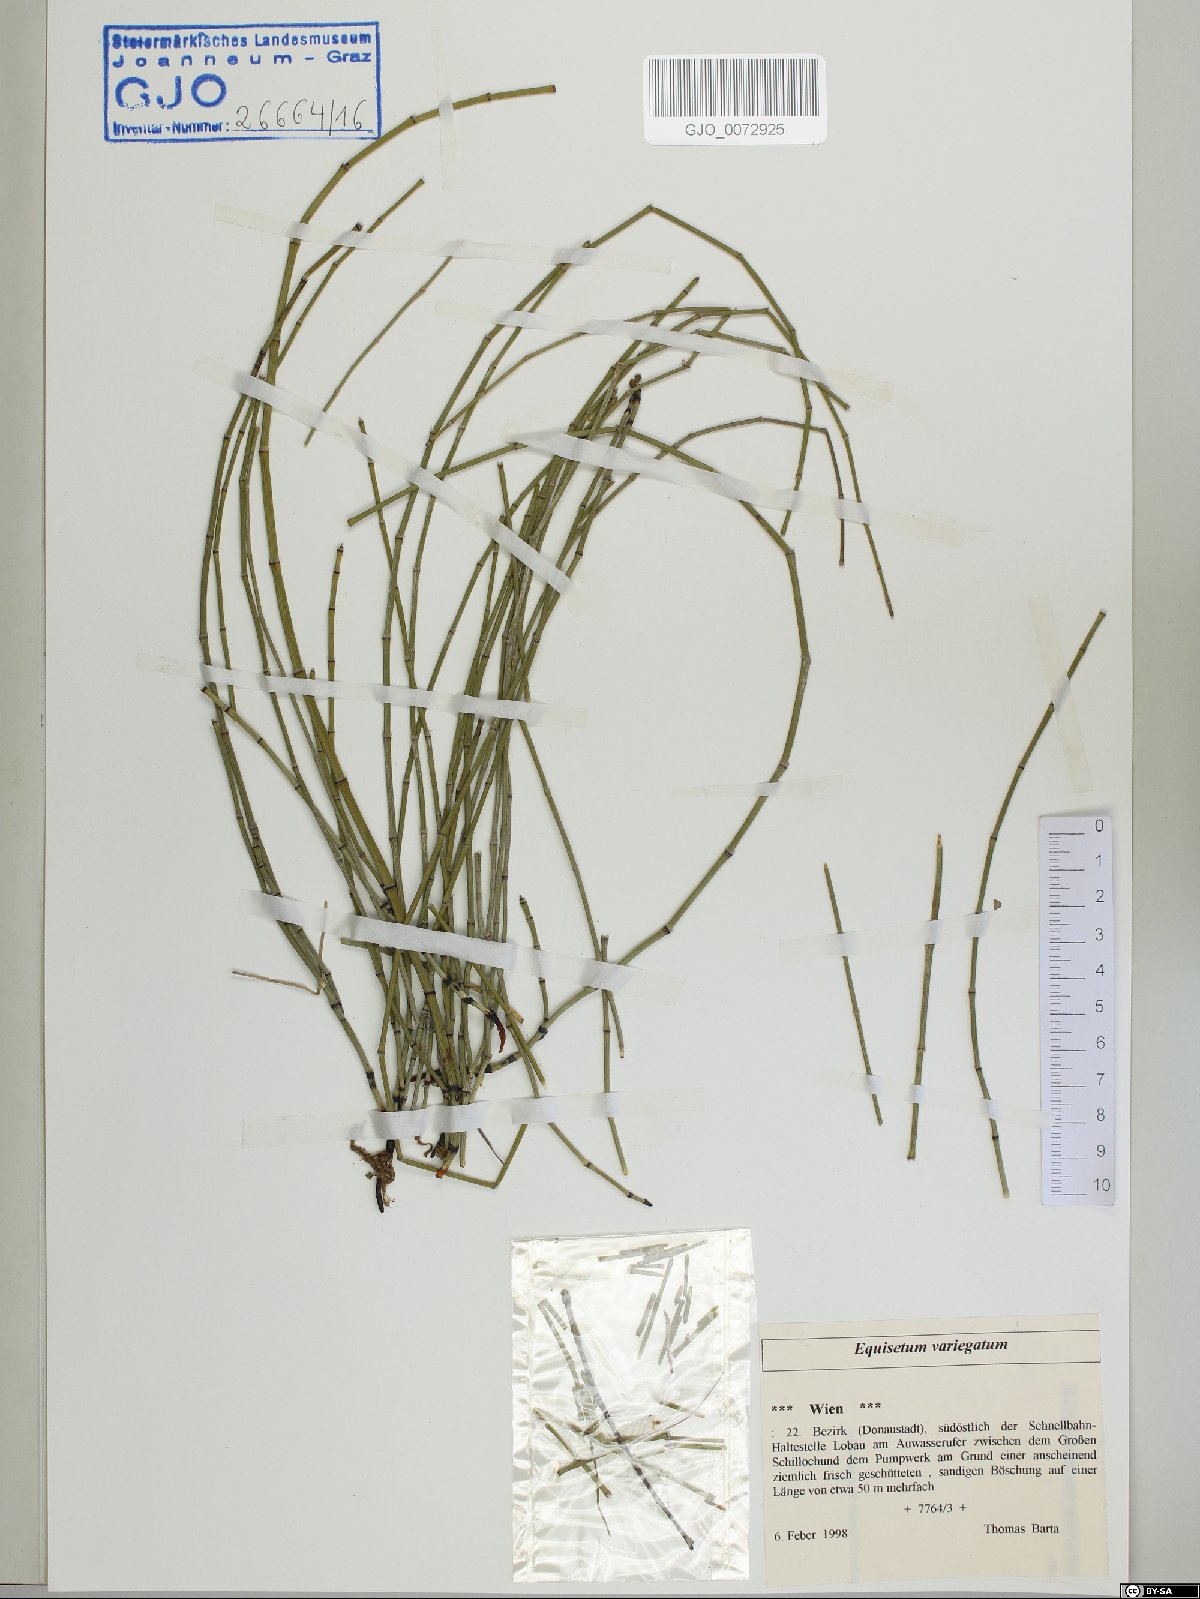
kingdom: Plantae
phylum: Tracheophyta
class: Polypodiopsida
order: Equisetales
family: Equisetaceae
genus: Equisetum
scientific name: Equisetum variegatum
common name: Variegated horsetail
